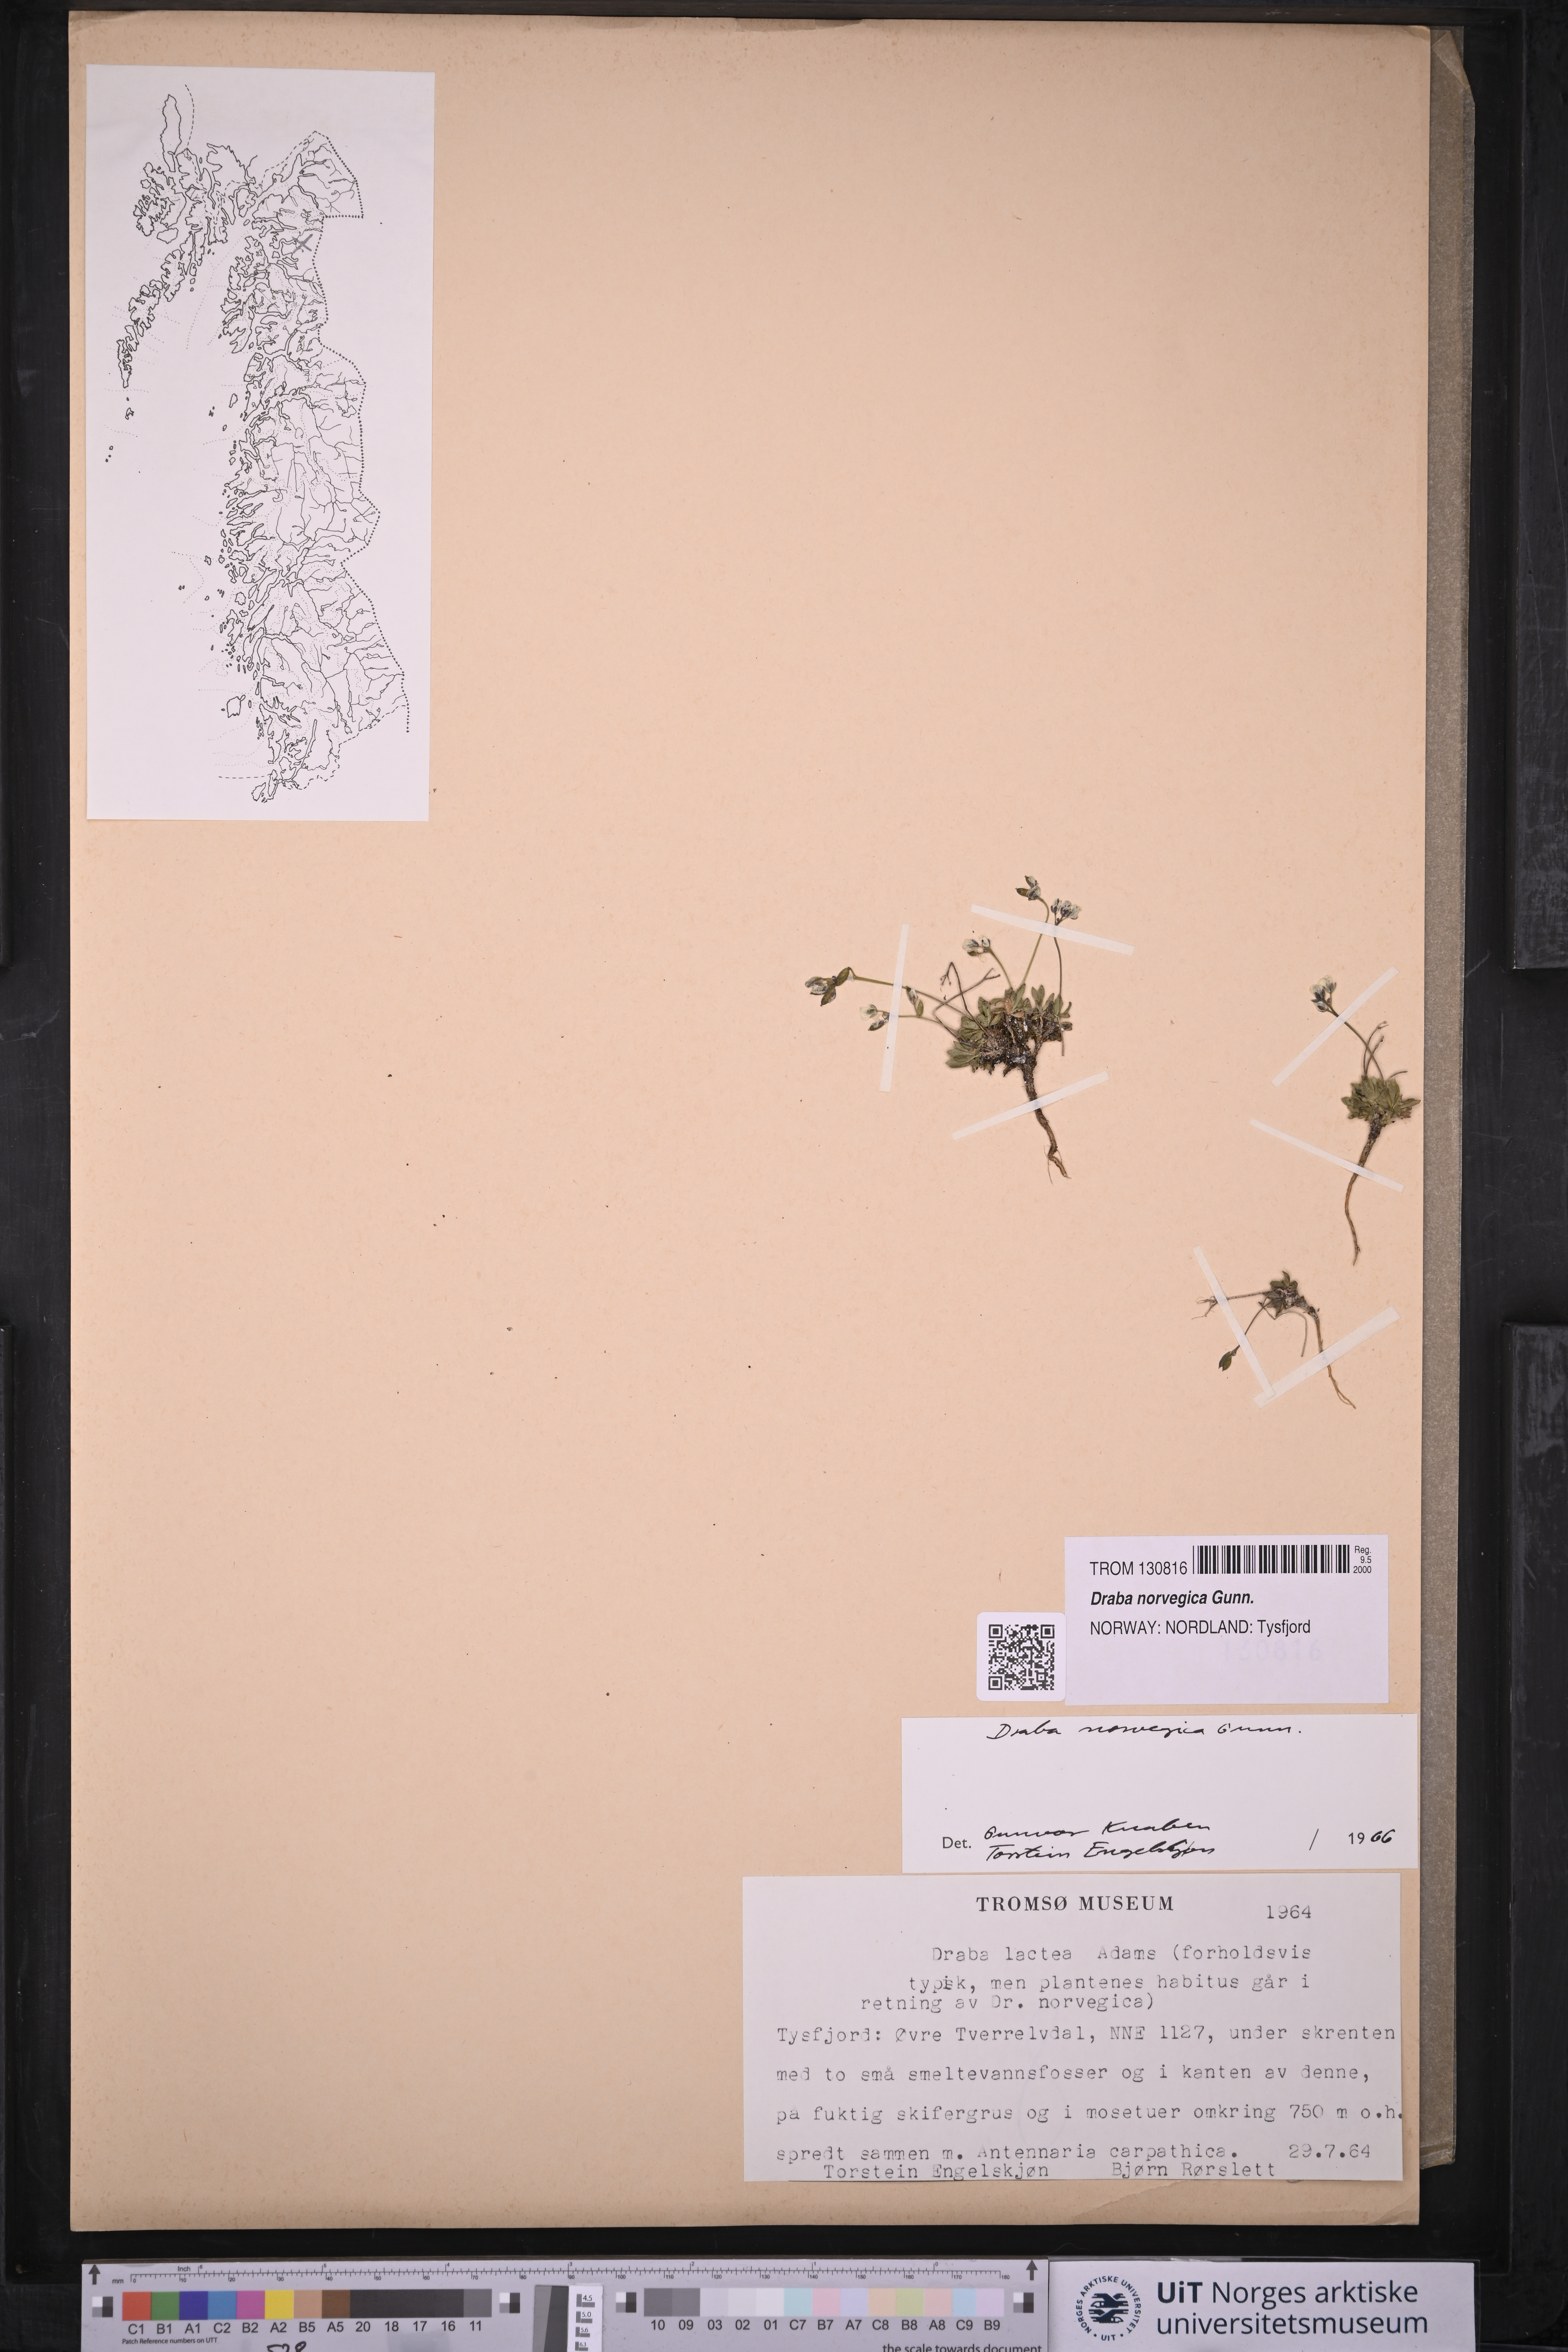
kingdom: Plantae
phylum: Tracheophyta
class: Magnoliopsida
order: Brassicales
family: Brassicaceae
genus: Draba
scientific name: Draba norvegica
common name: Rock whitlowgrass
